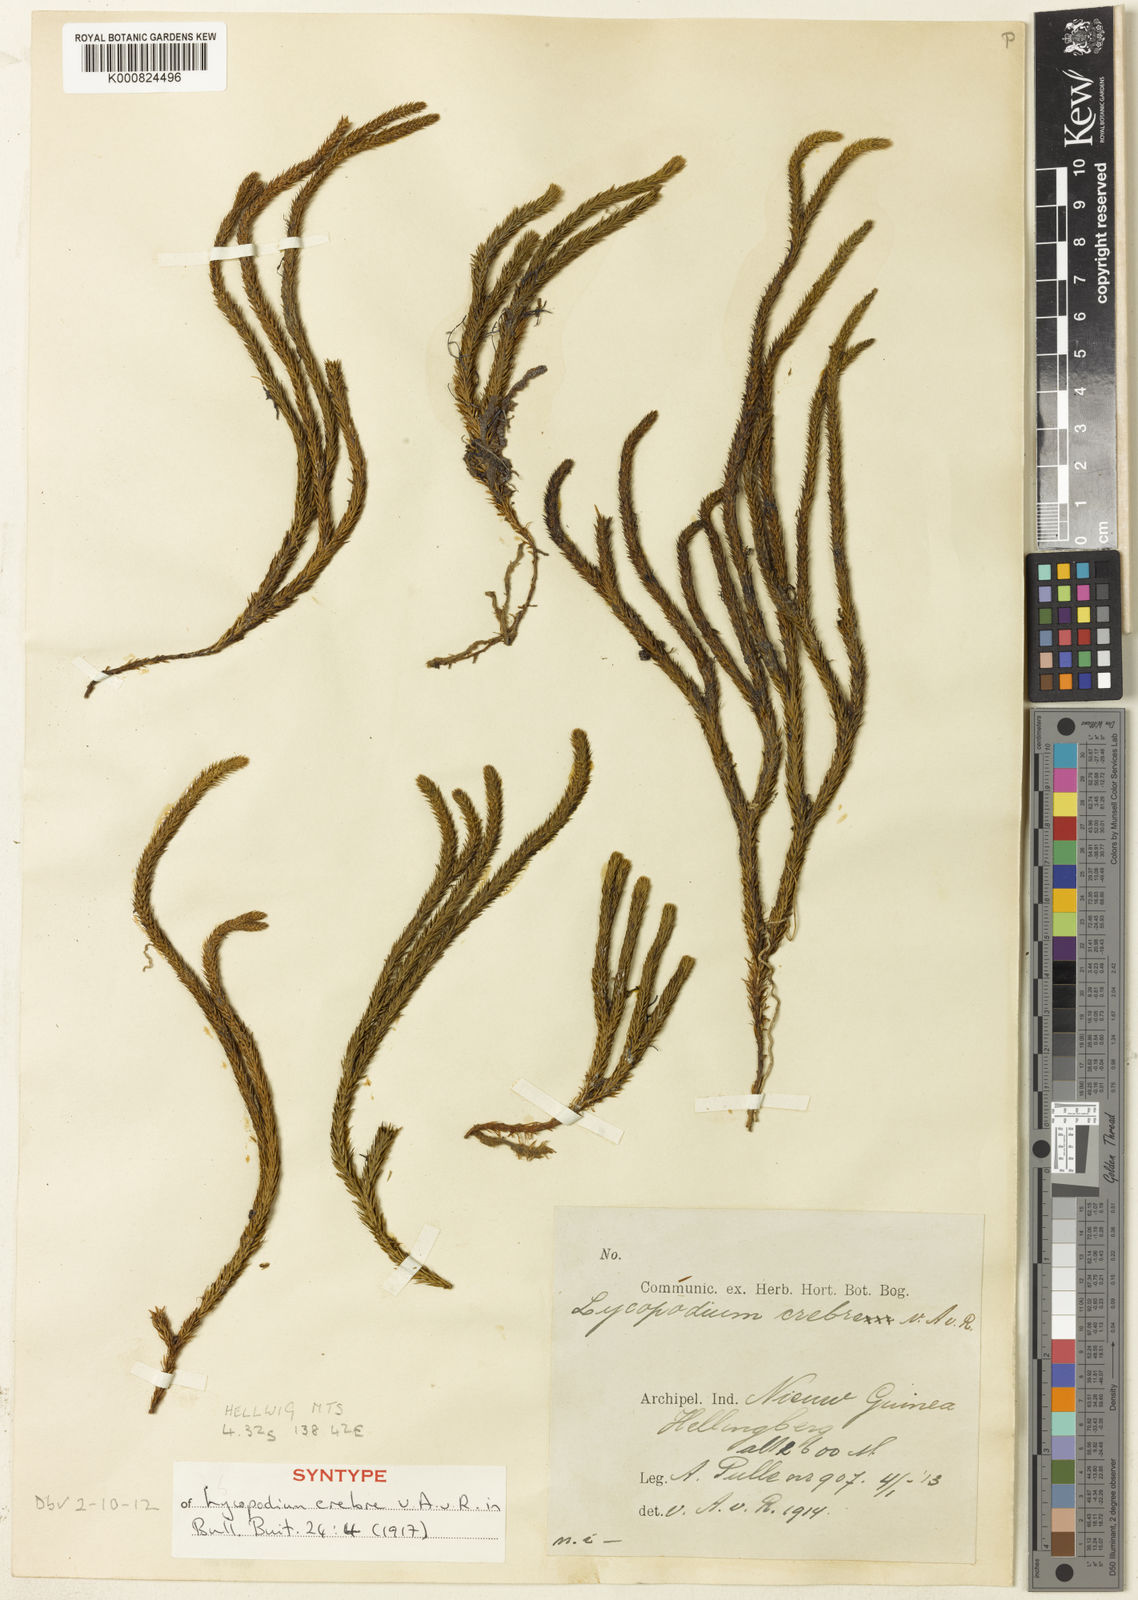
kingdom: Plantae
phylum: Tracheophyta
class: Lycopodiopsida
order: Lycopodiales
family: Lycopodiaceae
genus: Phlegmariurus
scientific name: Phlegmariurus creber
